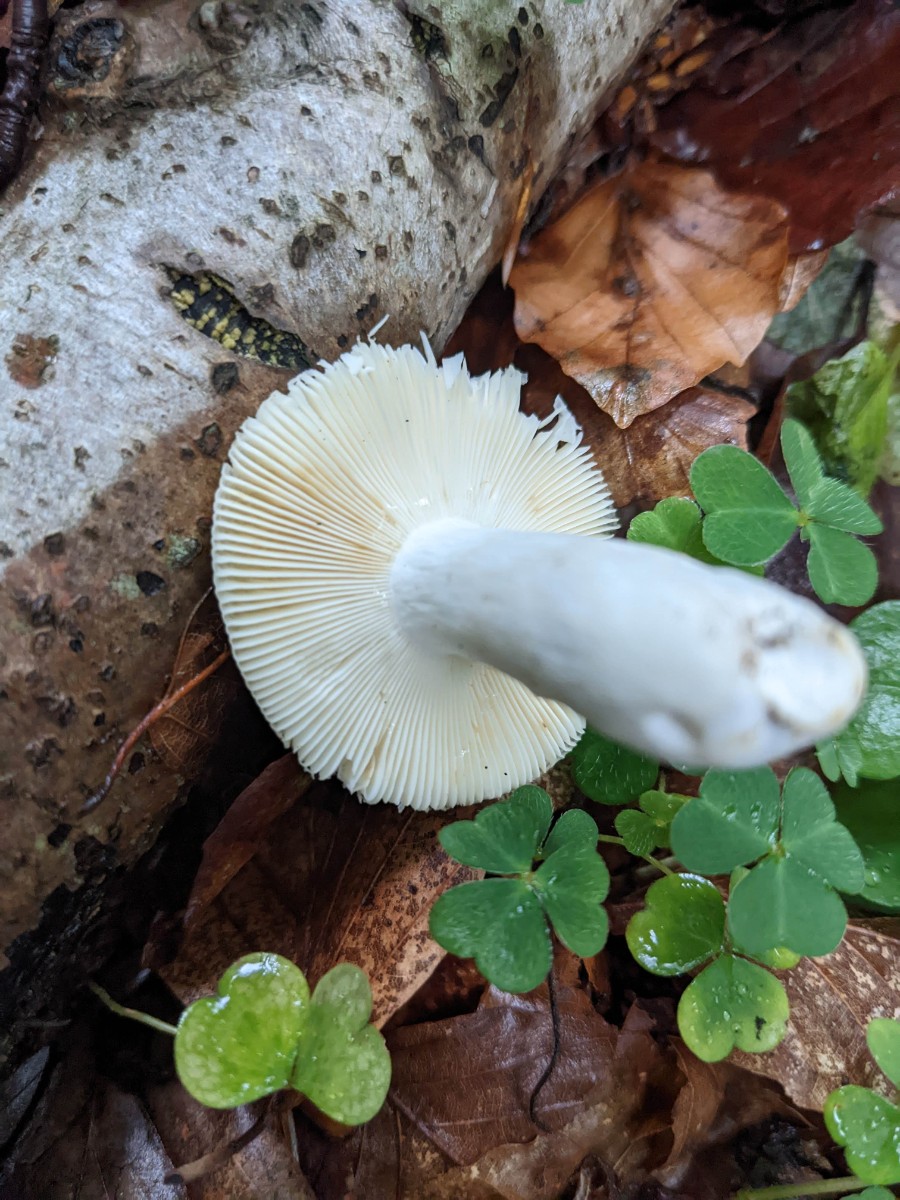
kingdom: Fungi
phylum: Basidiomycota
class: Agaricomycetes
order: Russulales
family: Russulaceae
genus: Russula
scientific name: Russula veternosa
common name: blødkødet skørhat
